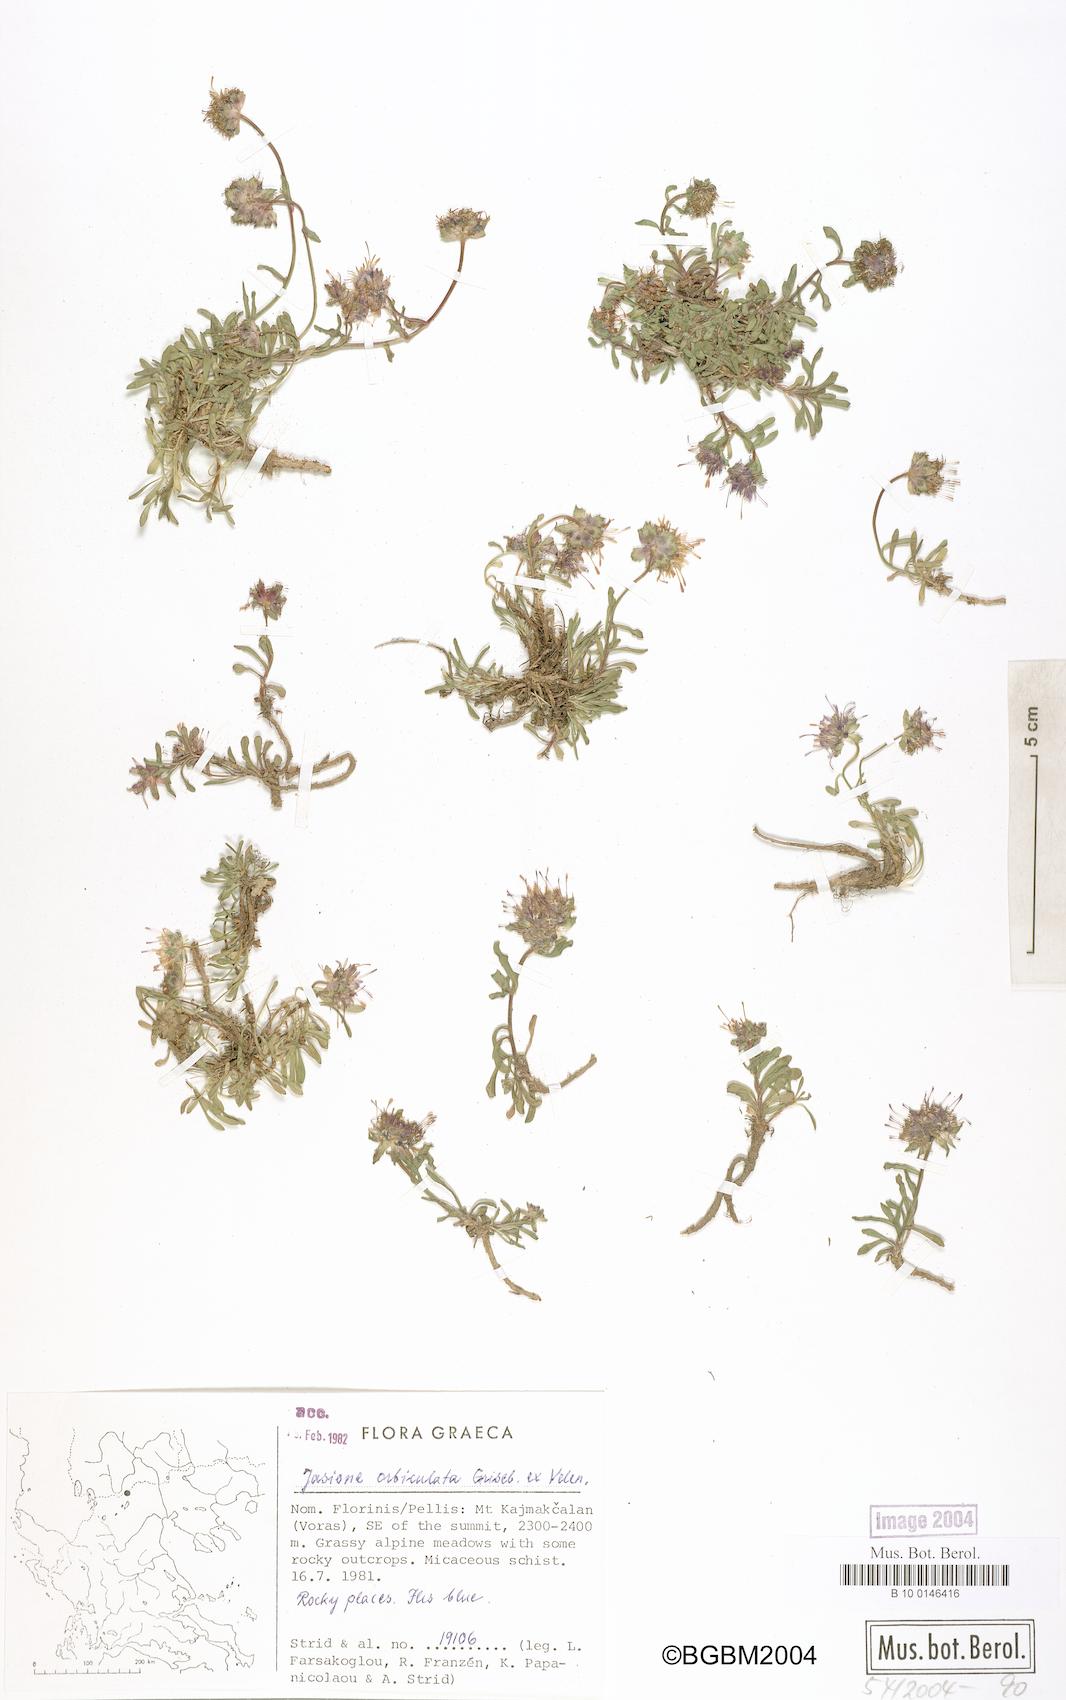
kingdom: Plantae
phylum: Tracheophyta
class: Magnoliopsida
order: Asterales
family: Campanulaceae
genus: Jasione
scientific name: Jasione orbiculata
